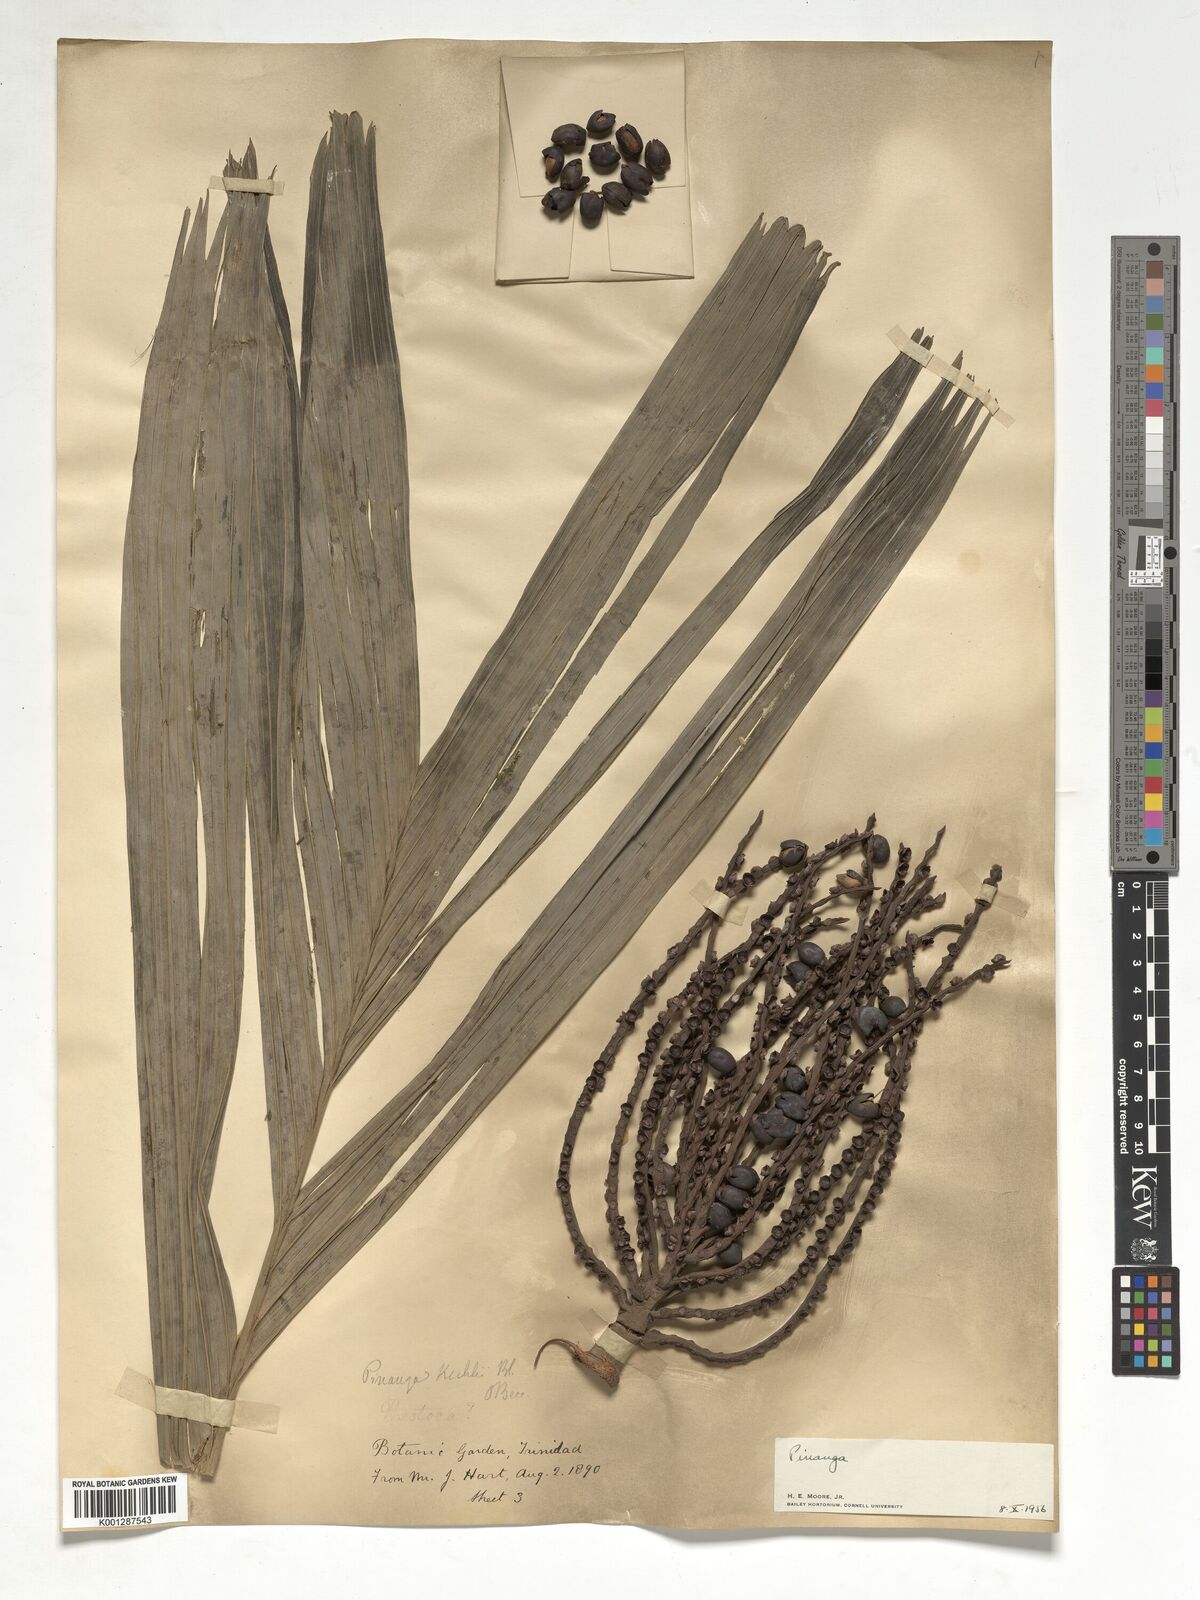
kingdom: Plantae
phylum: Tracheophyta
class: Liliopsida
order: Arecales
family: Arecaceae
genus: Pinanga
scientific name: Pinanga
